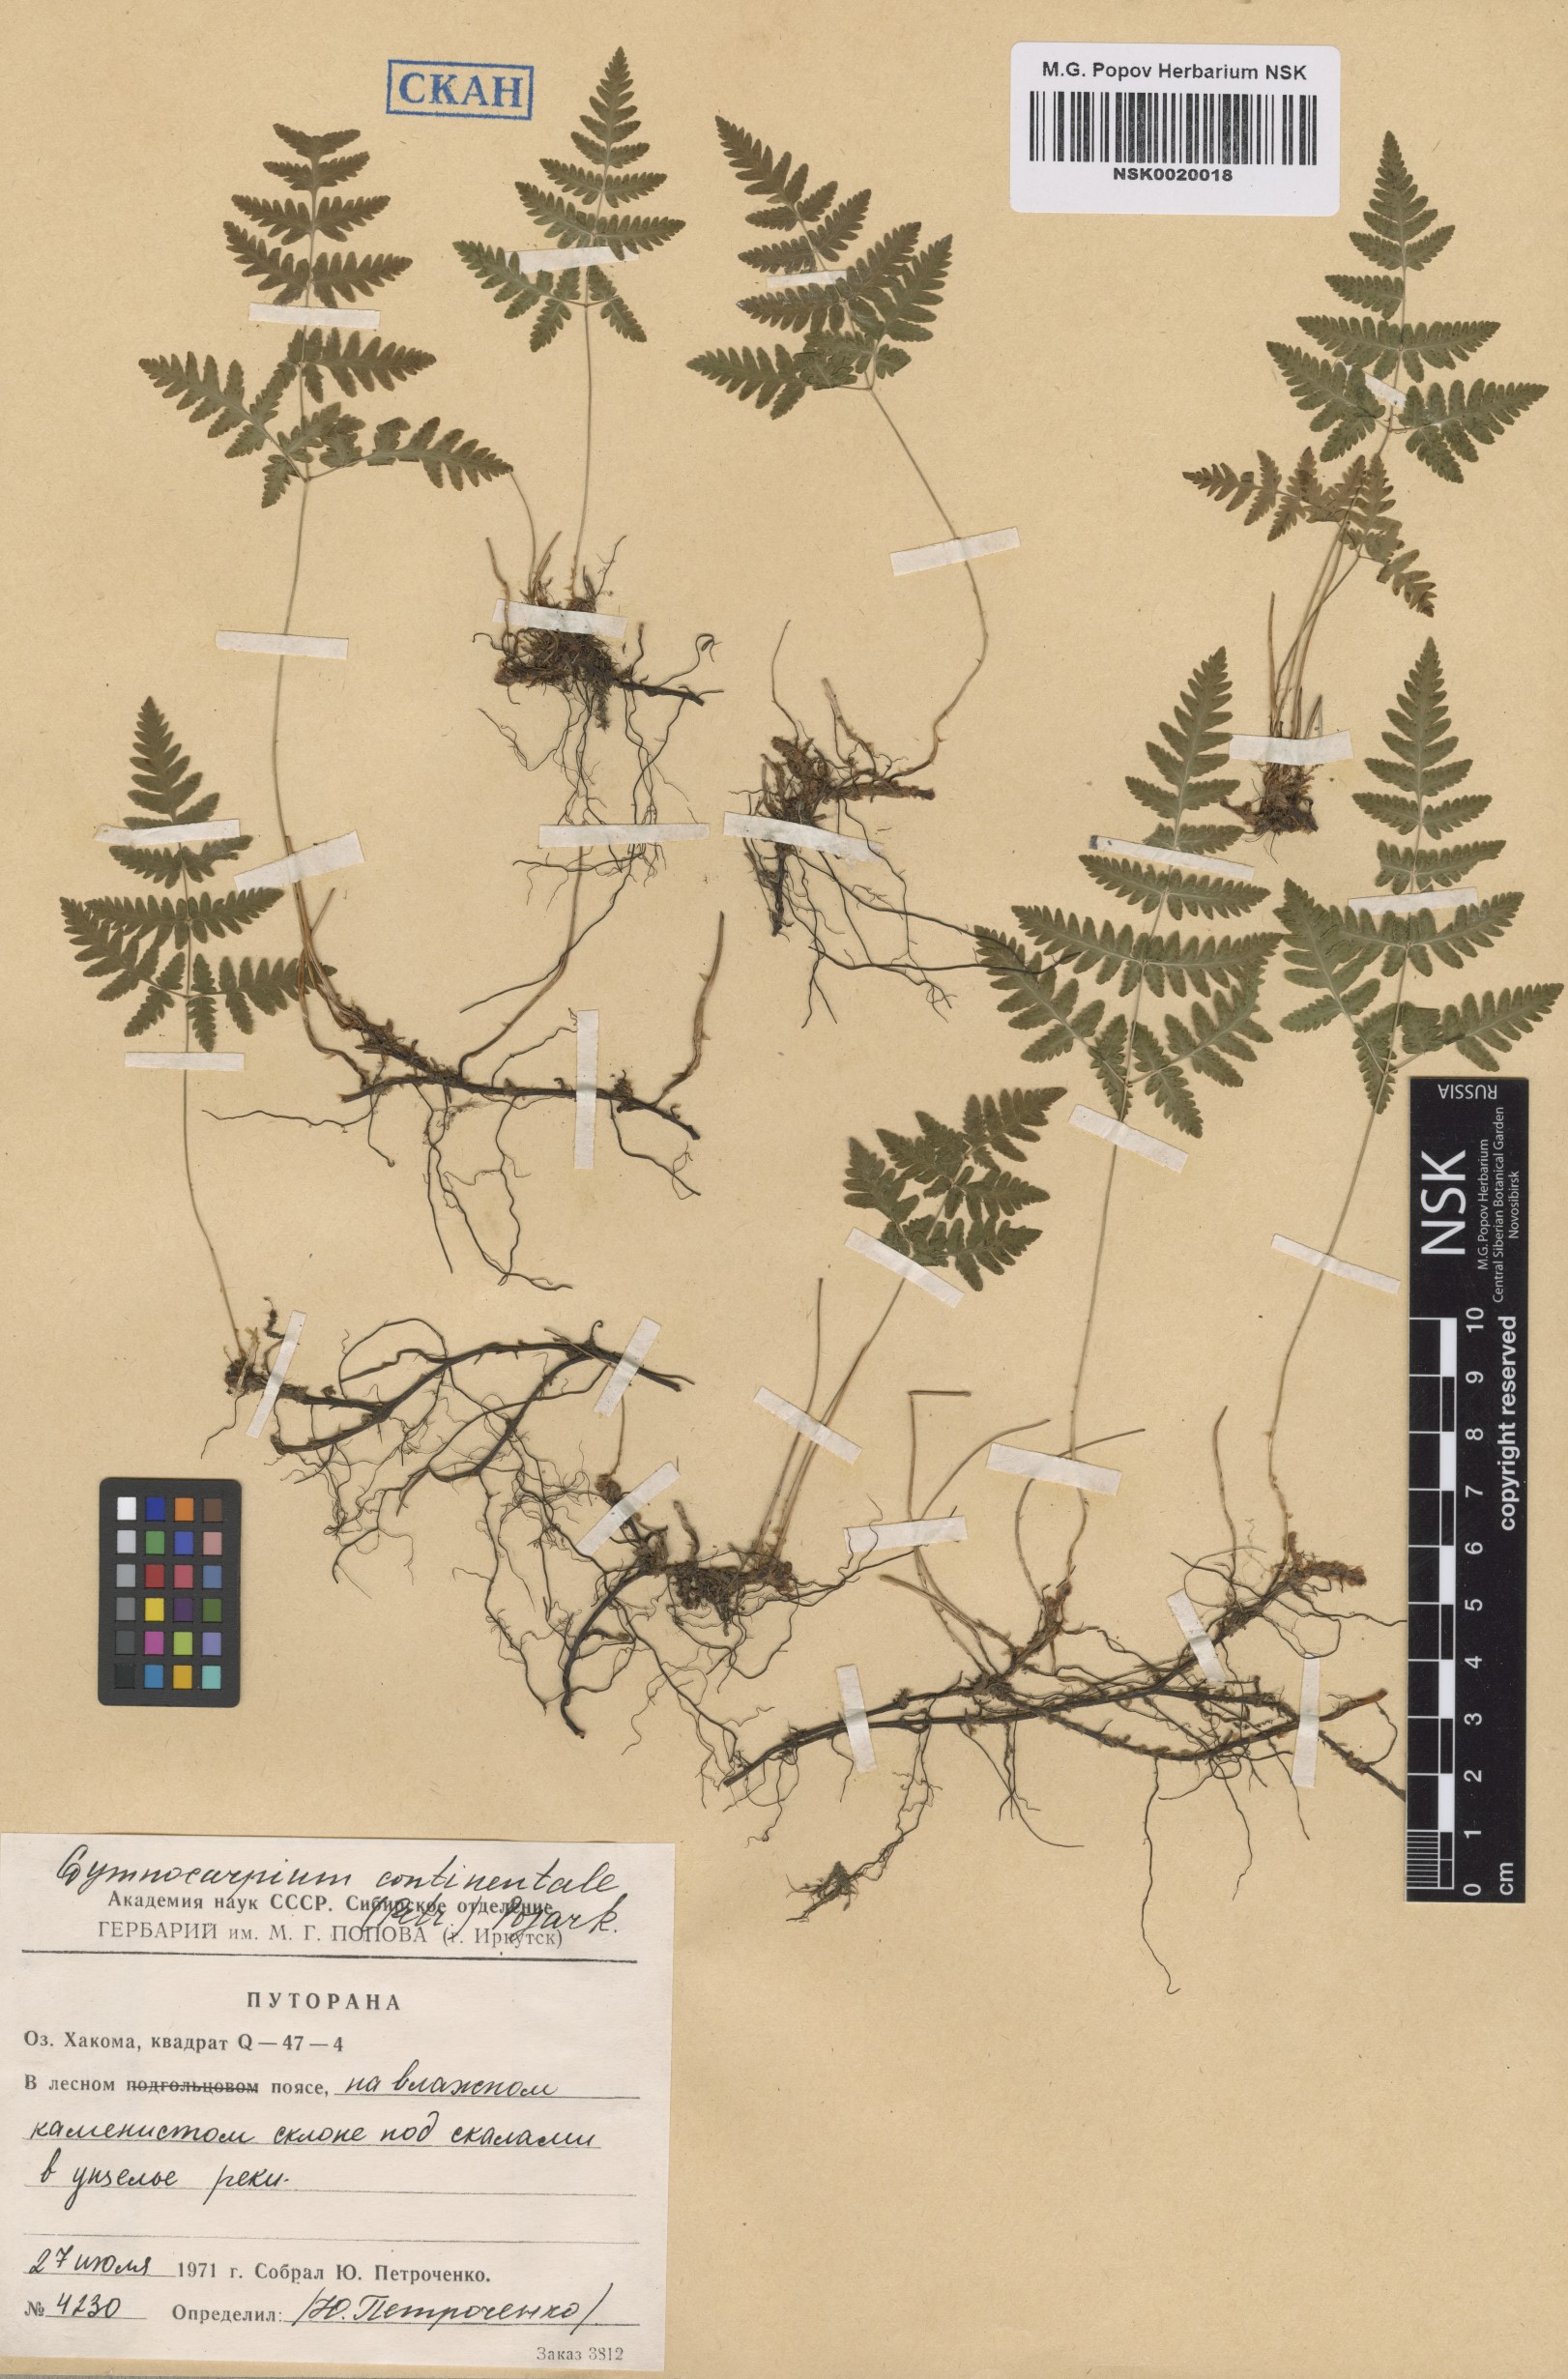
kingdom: Plantae
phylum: Tracheophyta
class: Polypodiopsida
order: Polypodiales
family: Cystopteridaceae
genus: Gymnocarpium
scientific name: Gymnocarpium continentale
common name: Asian oak fern
